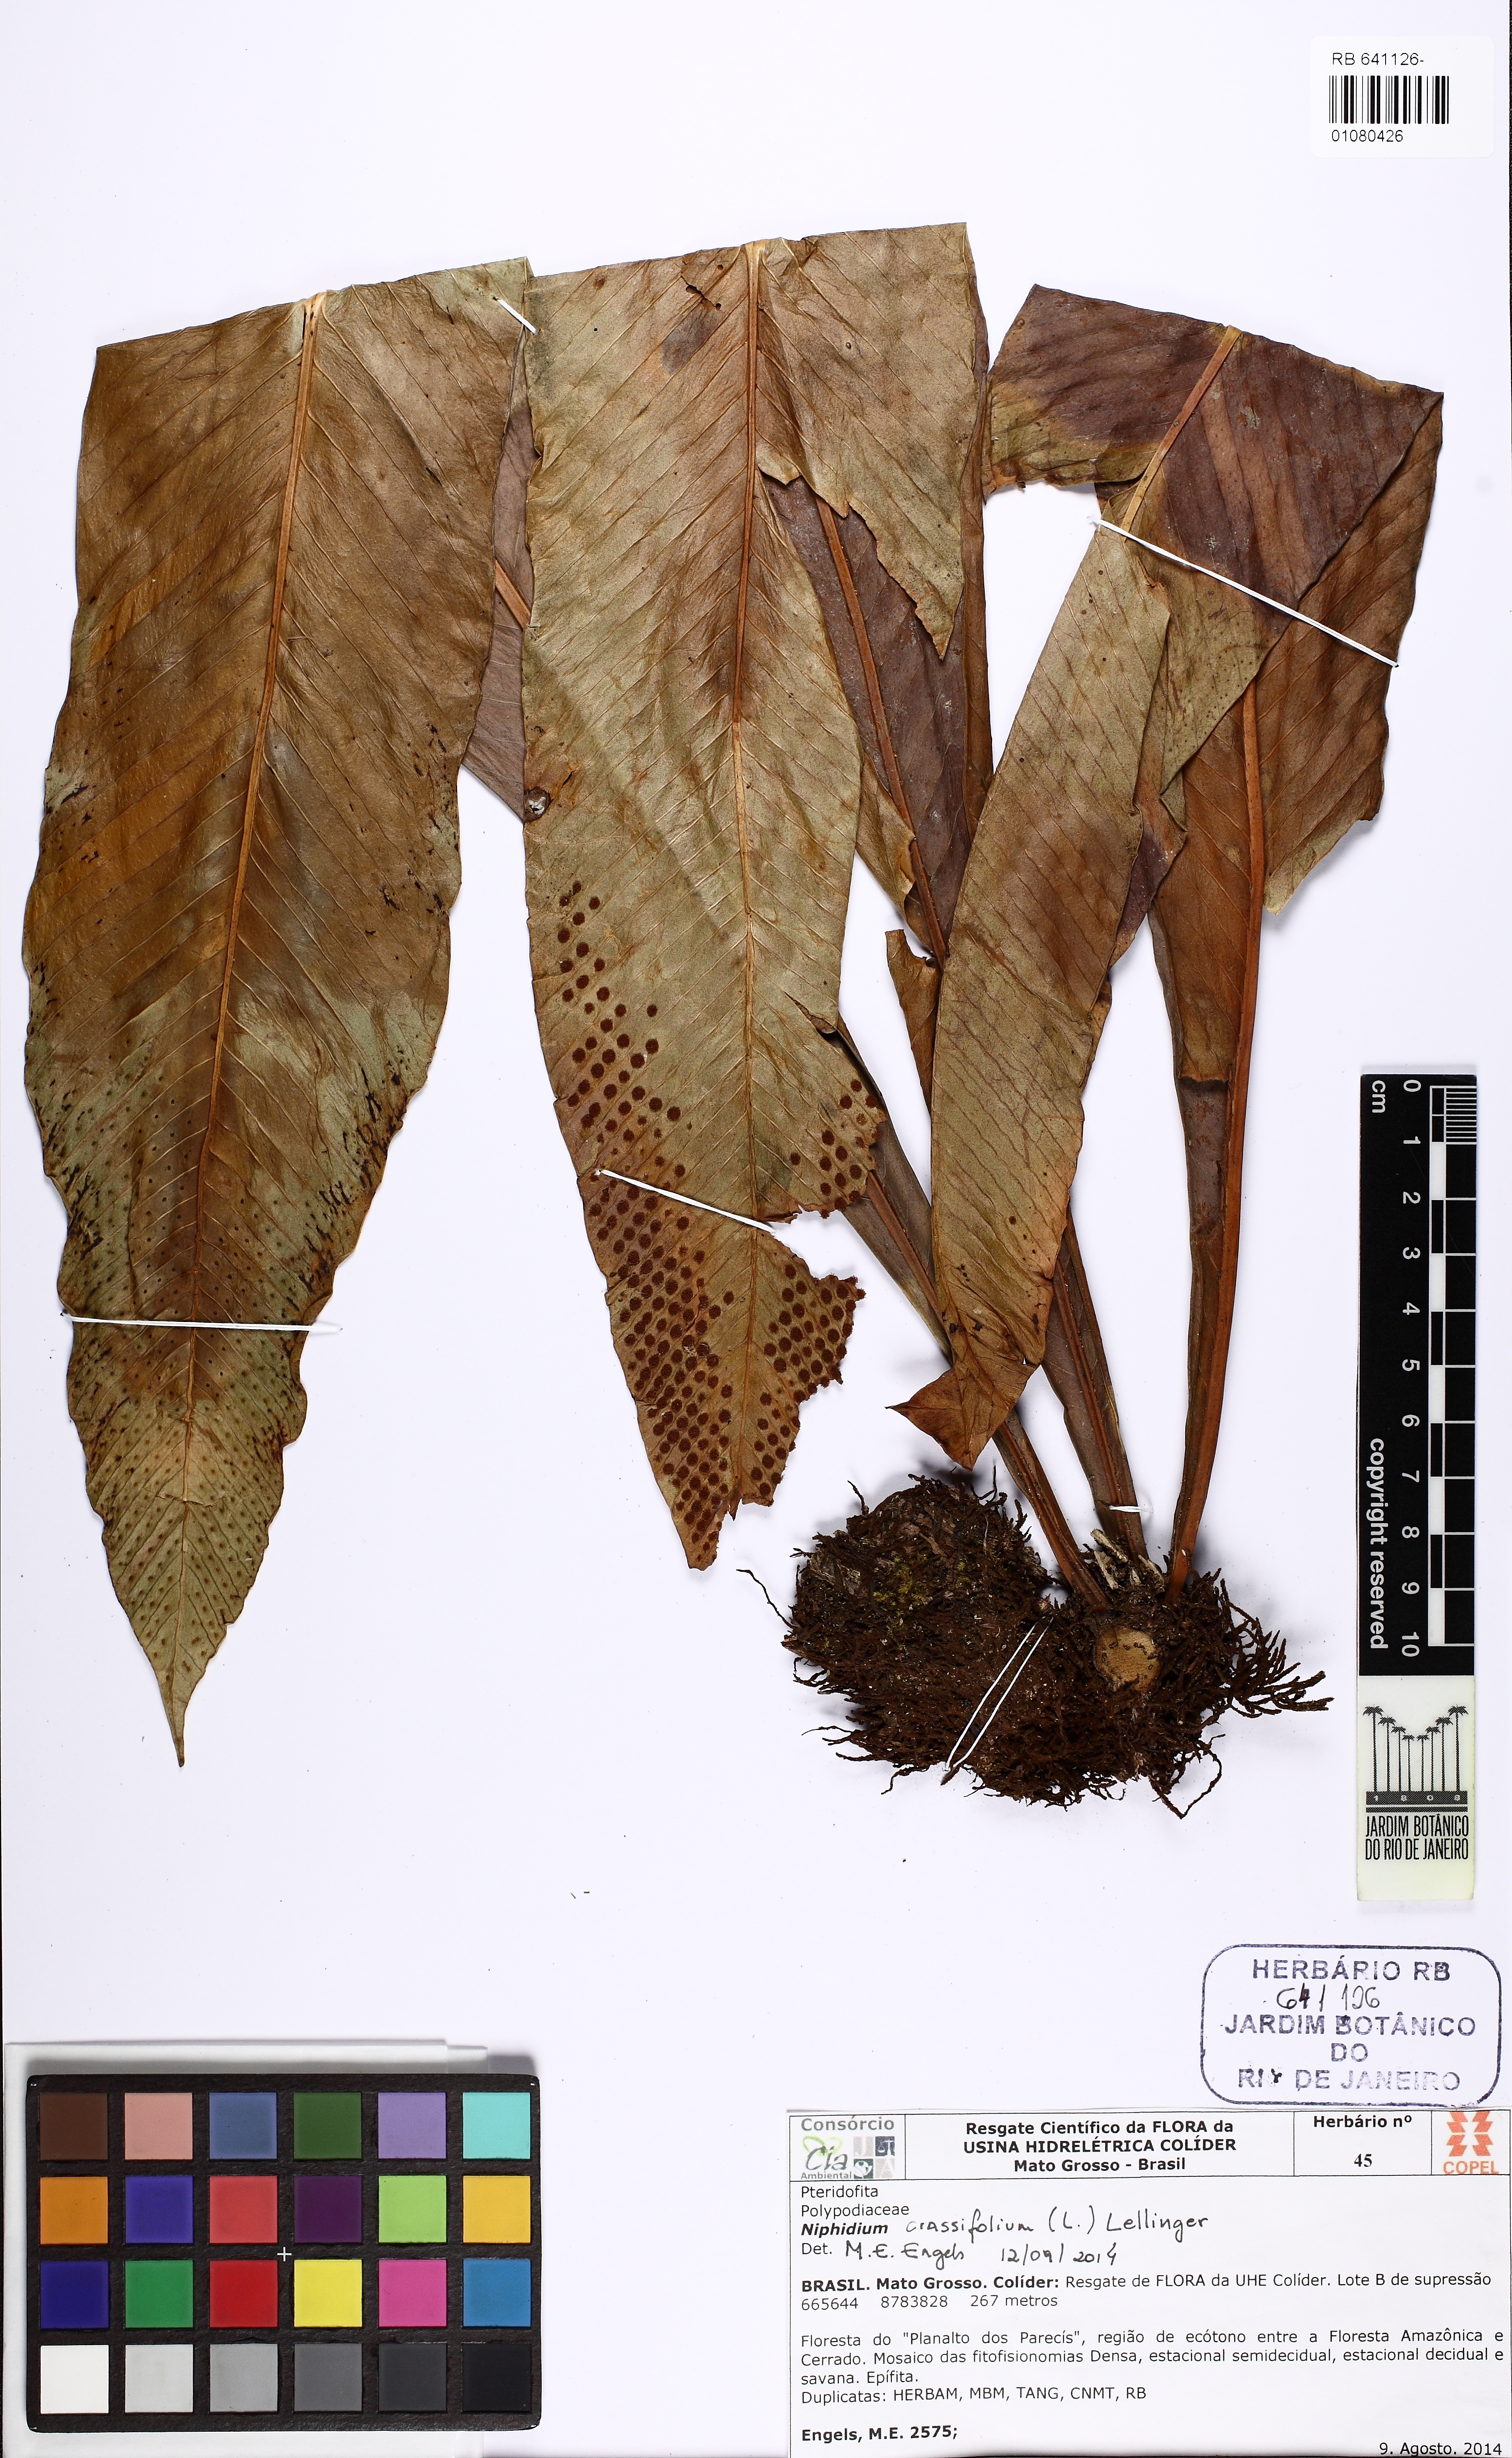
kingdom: Plantae
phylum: Tracheophyta
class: Polypodiopsida
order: Polypodiales
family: Polypodiaceae
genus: Niphidium
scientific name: Niphidium crassifolium
